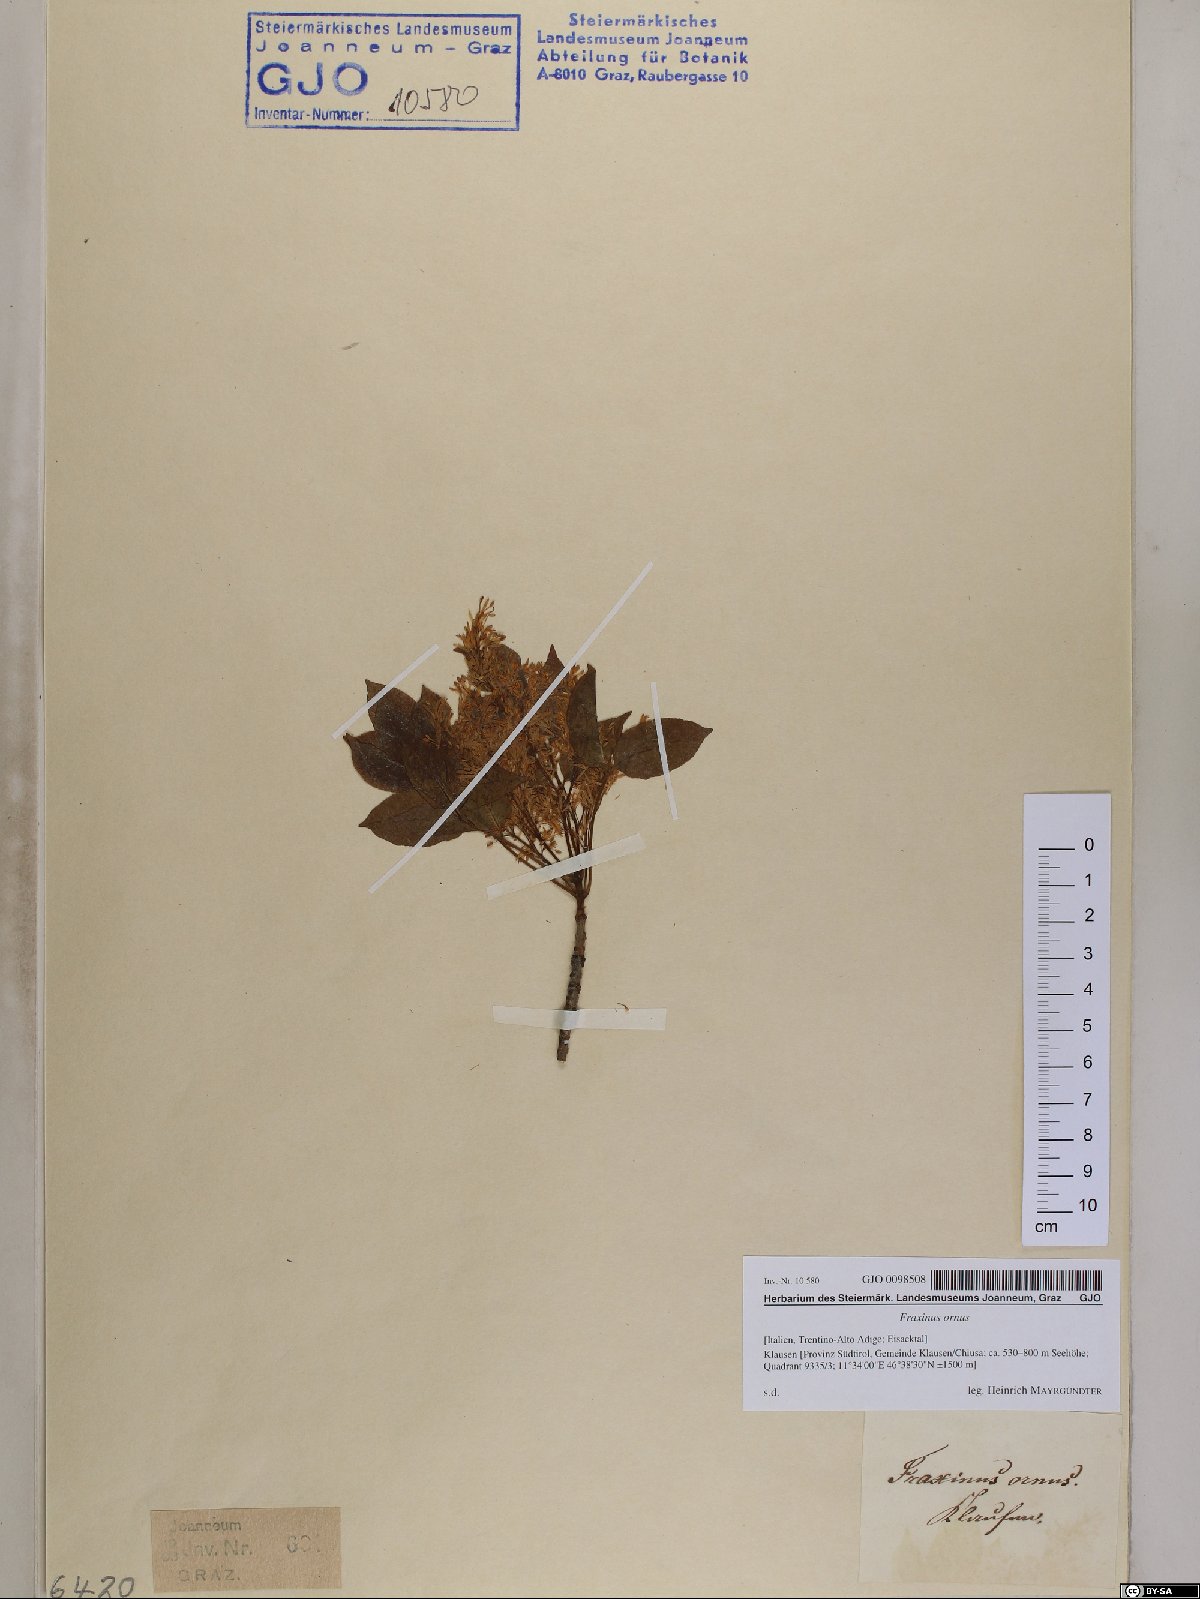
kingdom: Plantae
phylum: Tracheophyta
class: Magnoliopsida
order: Lamiales
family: Oleaceae
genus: Fraxinus
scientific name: Fraxinus ornus
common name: Manna ash
